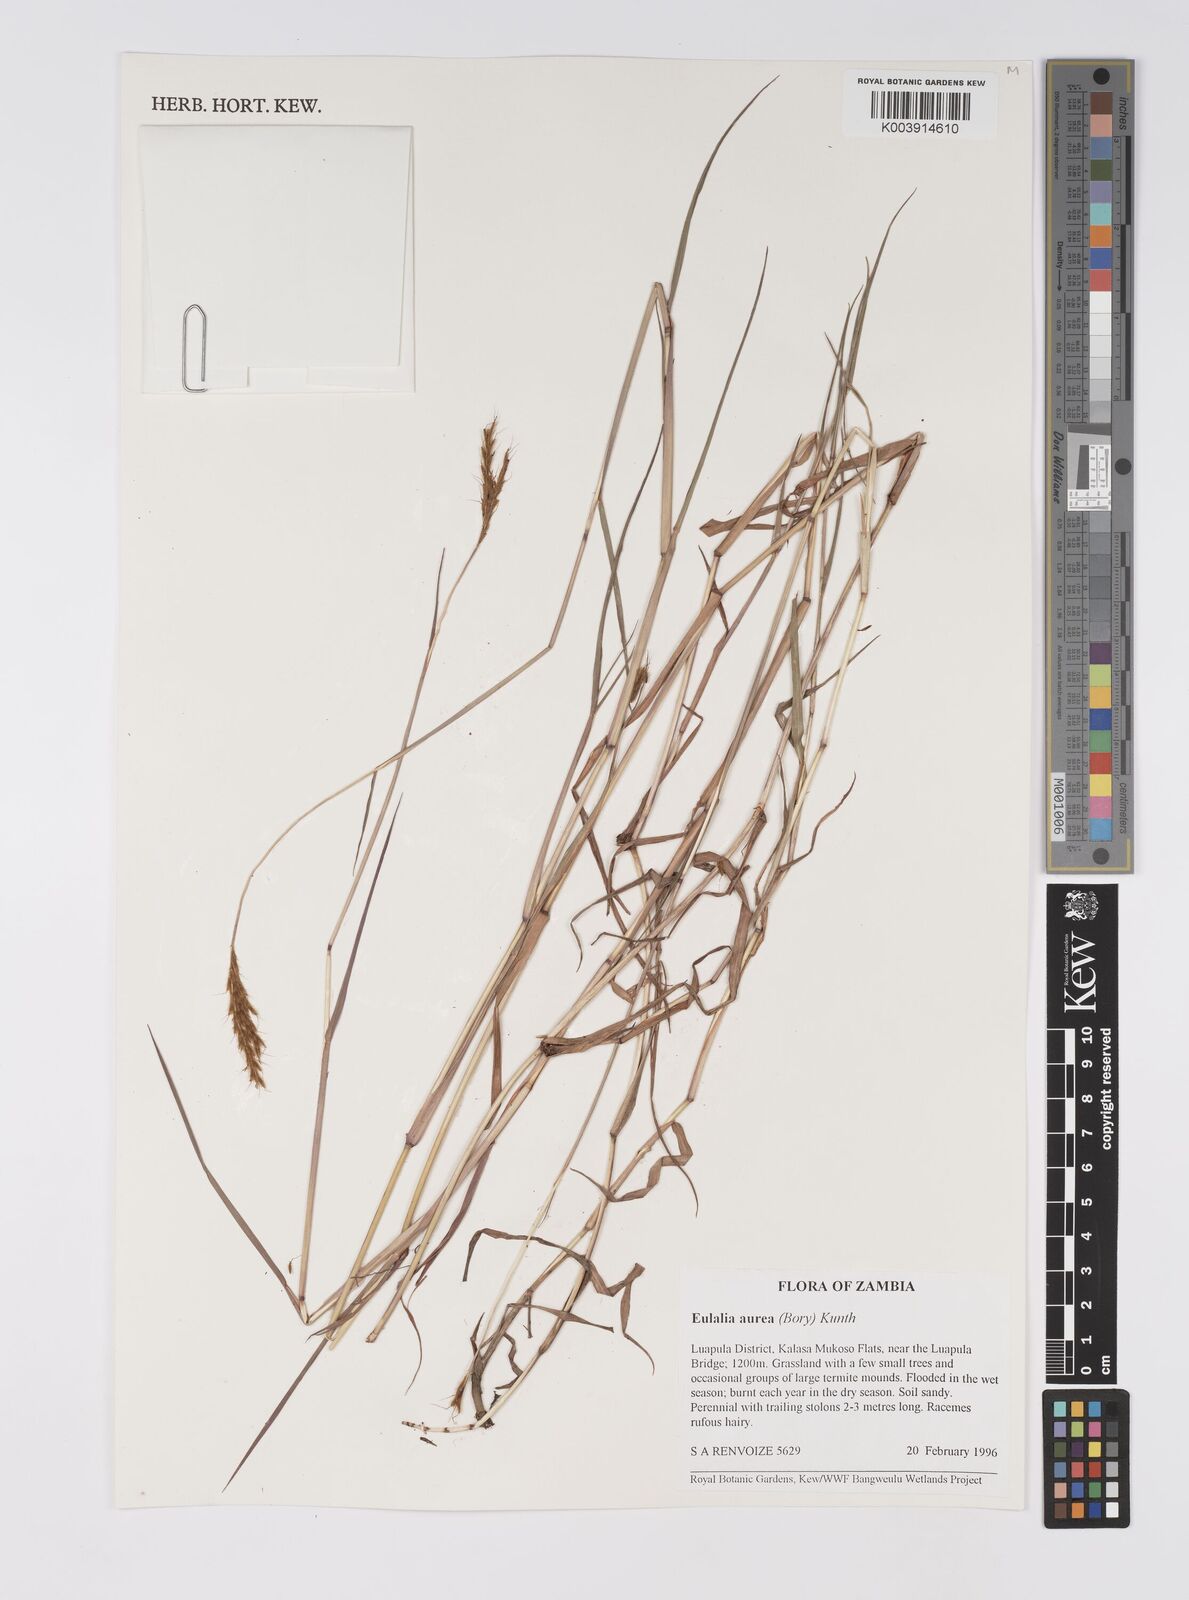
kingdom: Plantae
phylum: Tracheophyta
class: Liliopsida
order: Poales
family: Poaceae
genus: Eulalia
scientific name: Eulalia aurea
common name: Silky browntop
